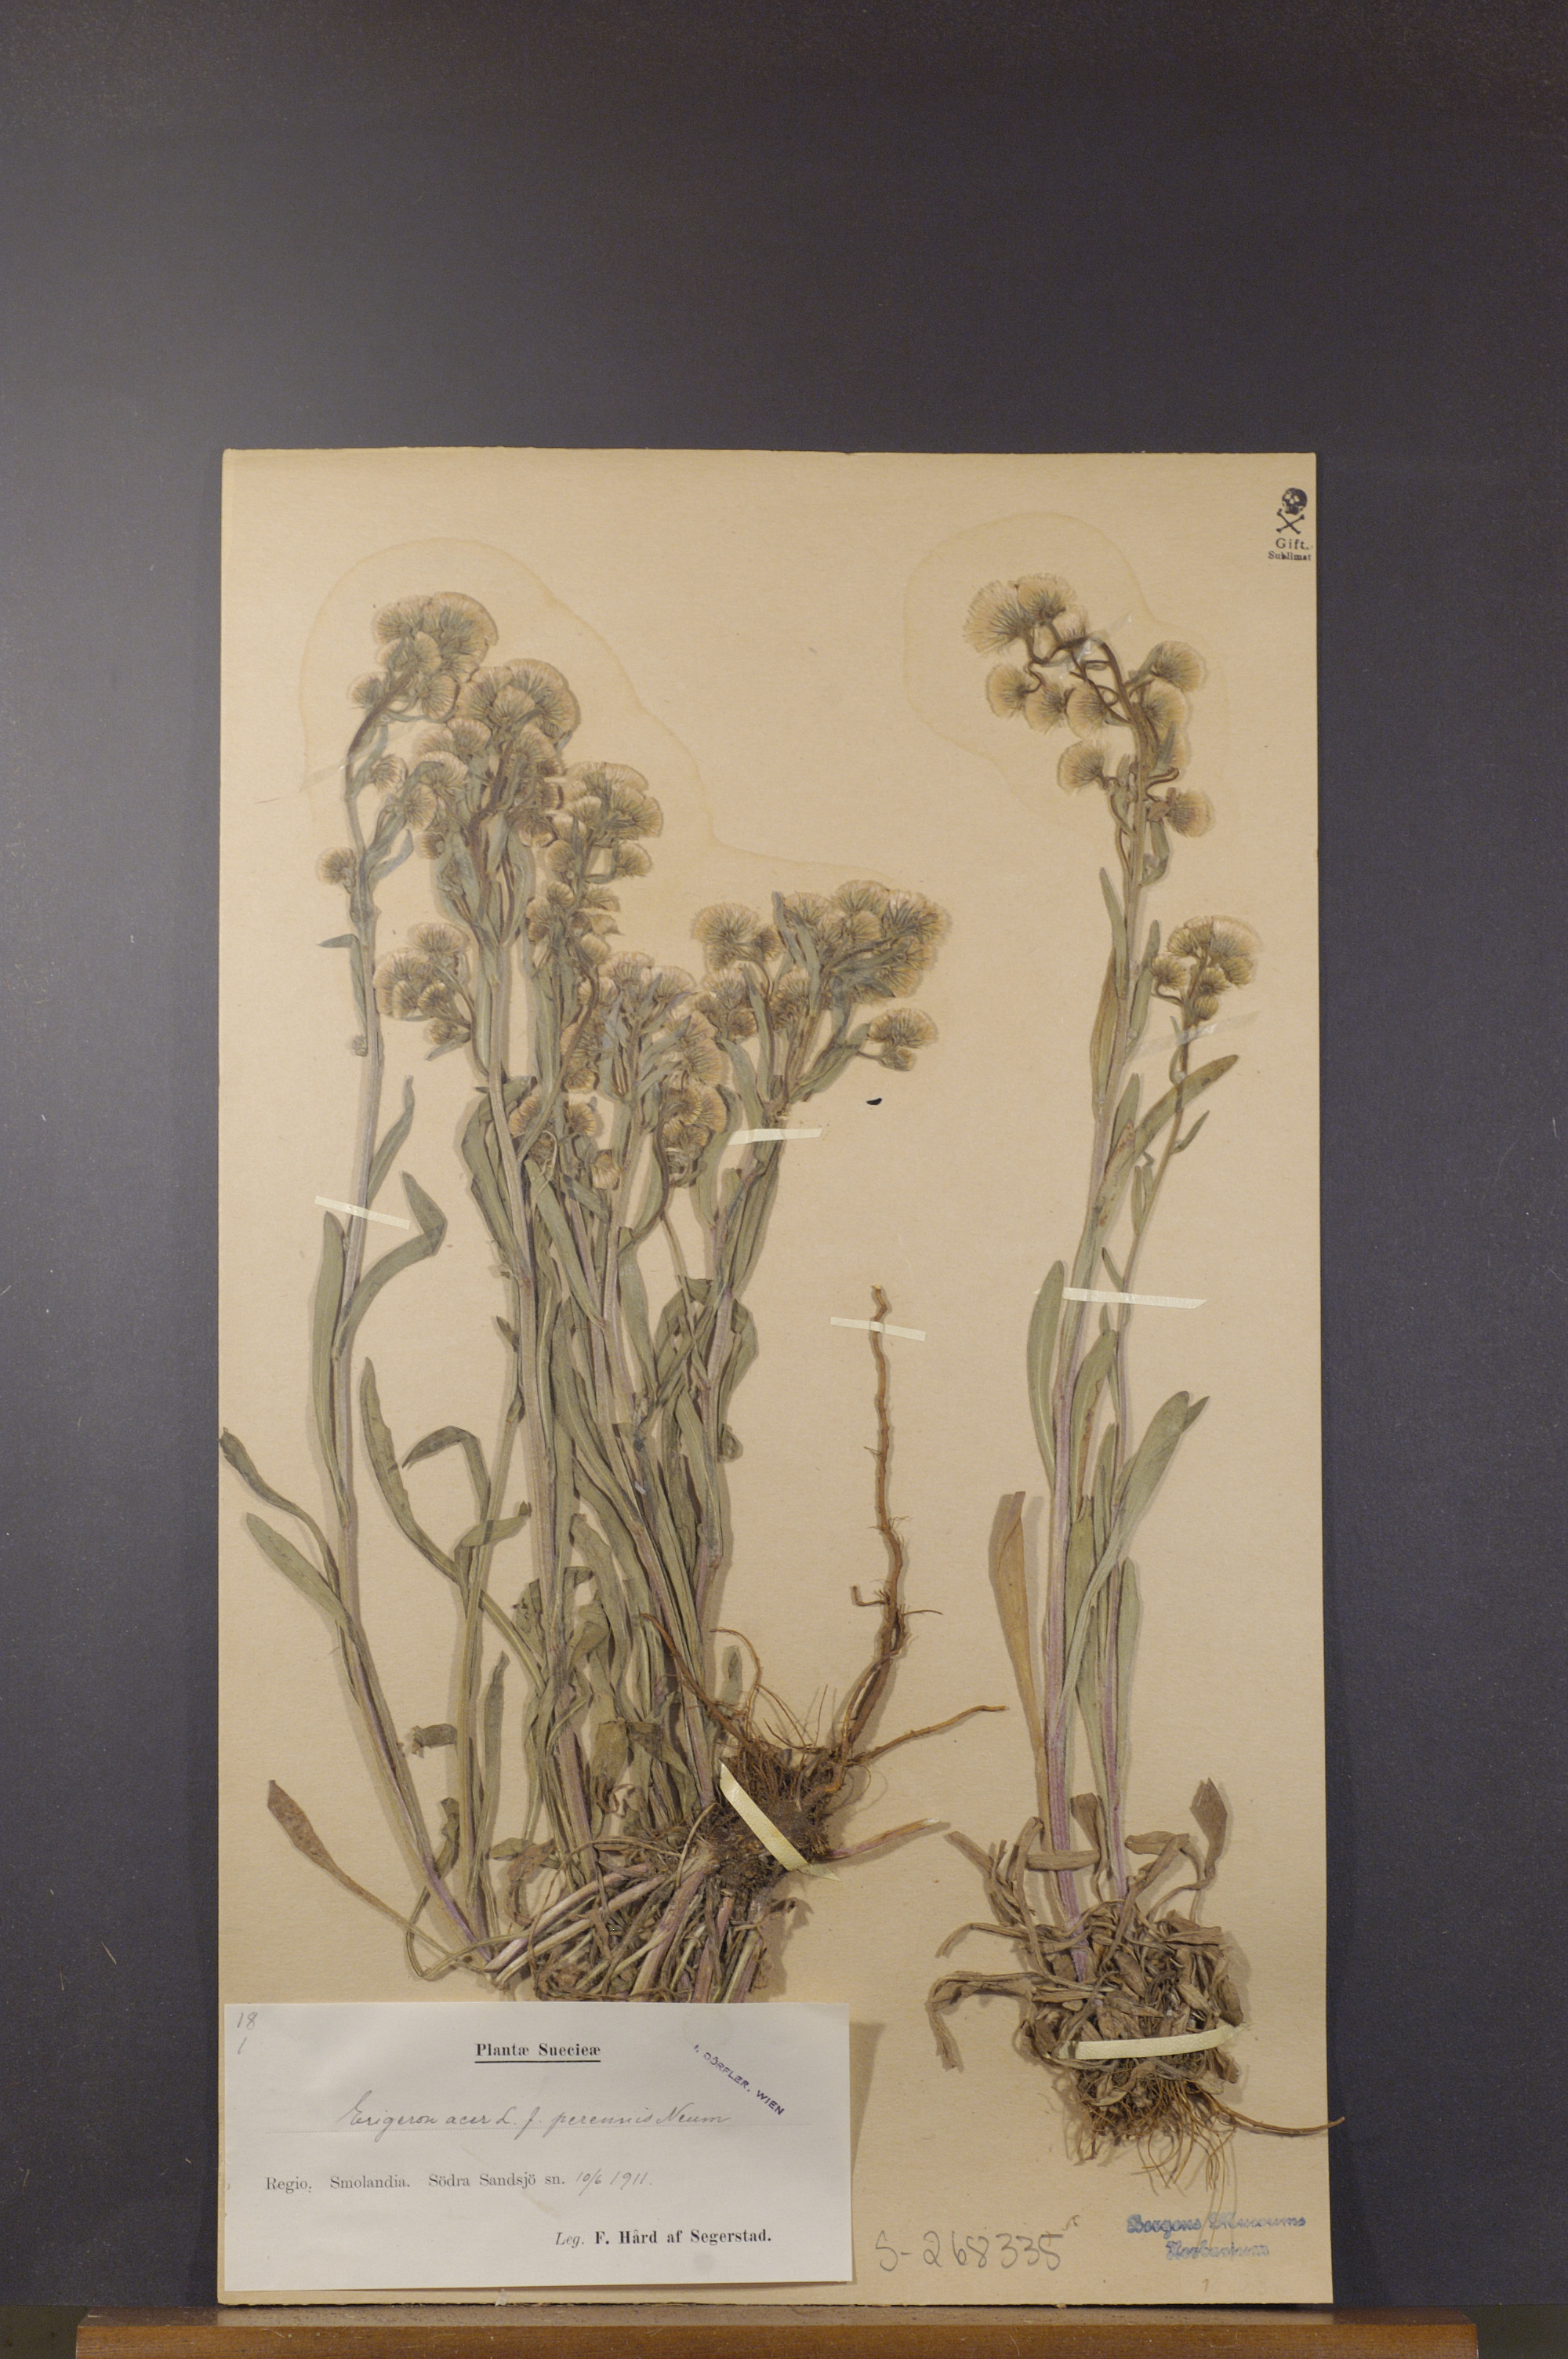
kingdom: Plantae
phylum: Tracheophyta
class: Magnoliopsida
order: Asterales
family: Asteraceae
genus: Erigeron
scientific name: Erigeron acris
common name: Blue fleabane
